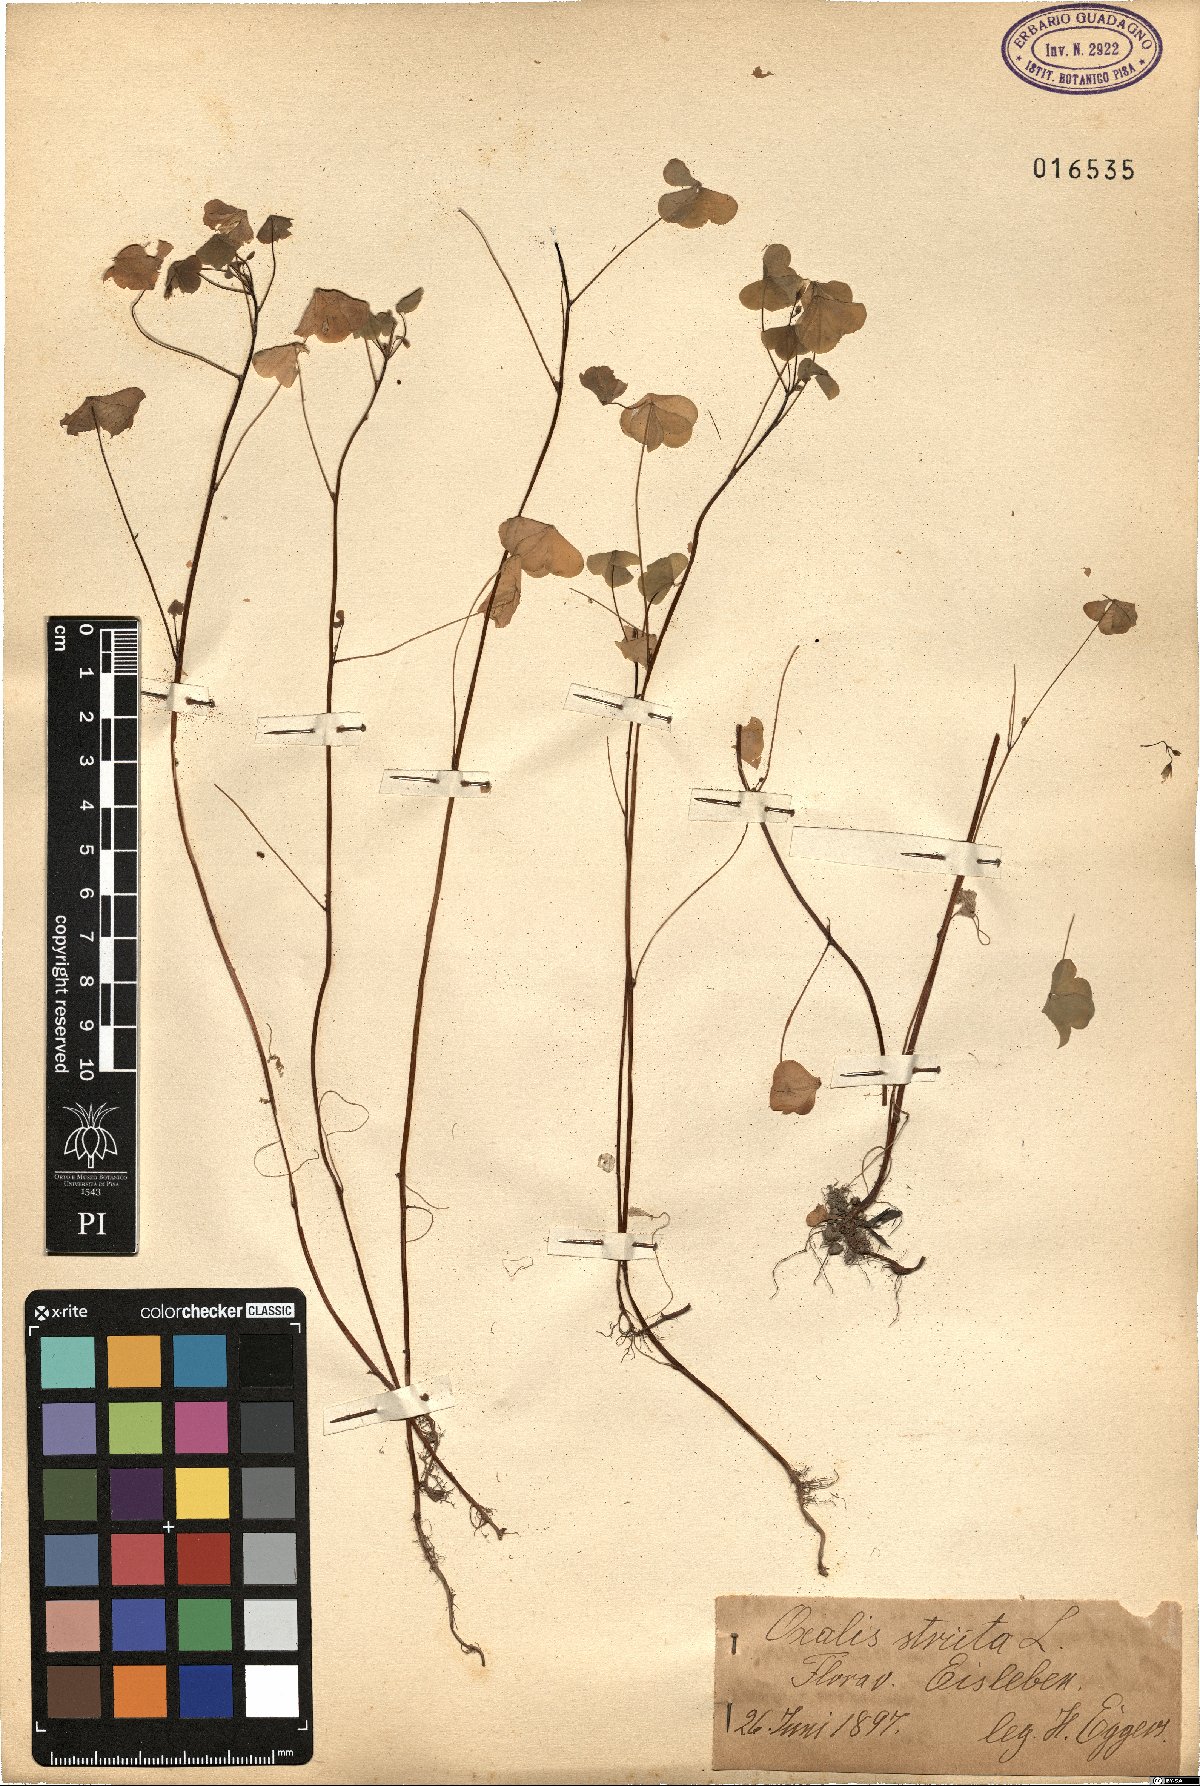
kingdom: Plantae
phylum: Tracheophyta
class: Magnoliopsida
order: Oxalidales
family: Oxalidaceae
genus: Oxalis
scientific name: Oxalis stricta
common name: Upright yellow-sorrel
